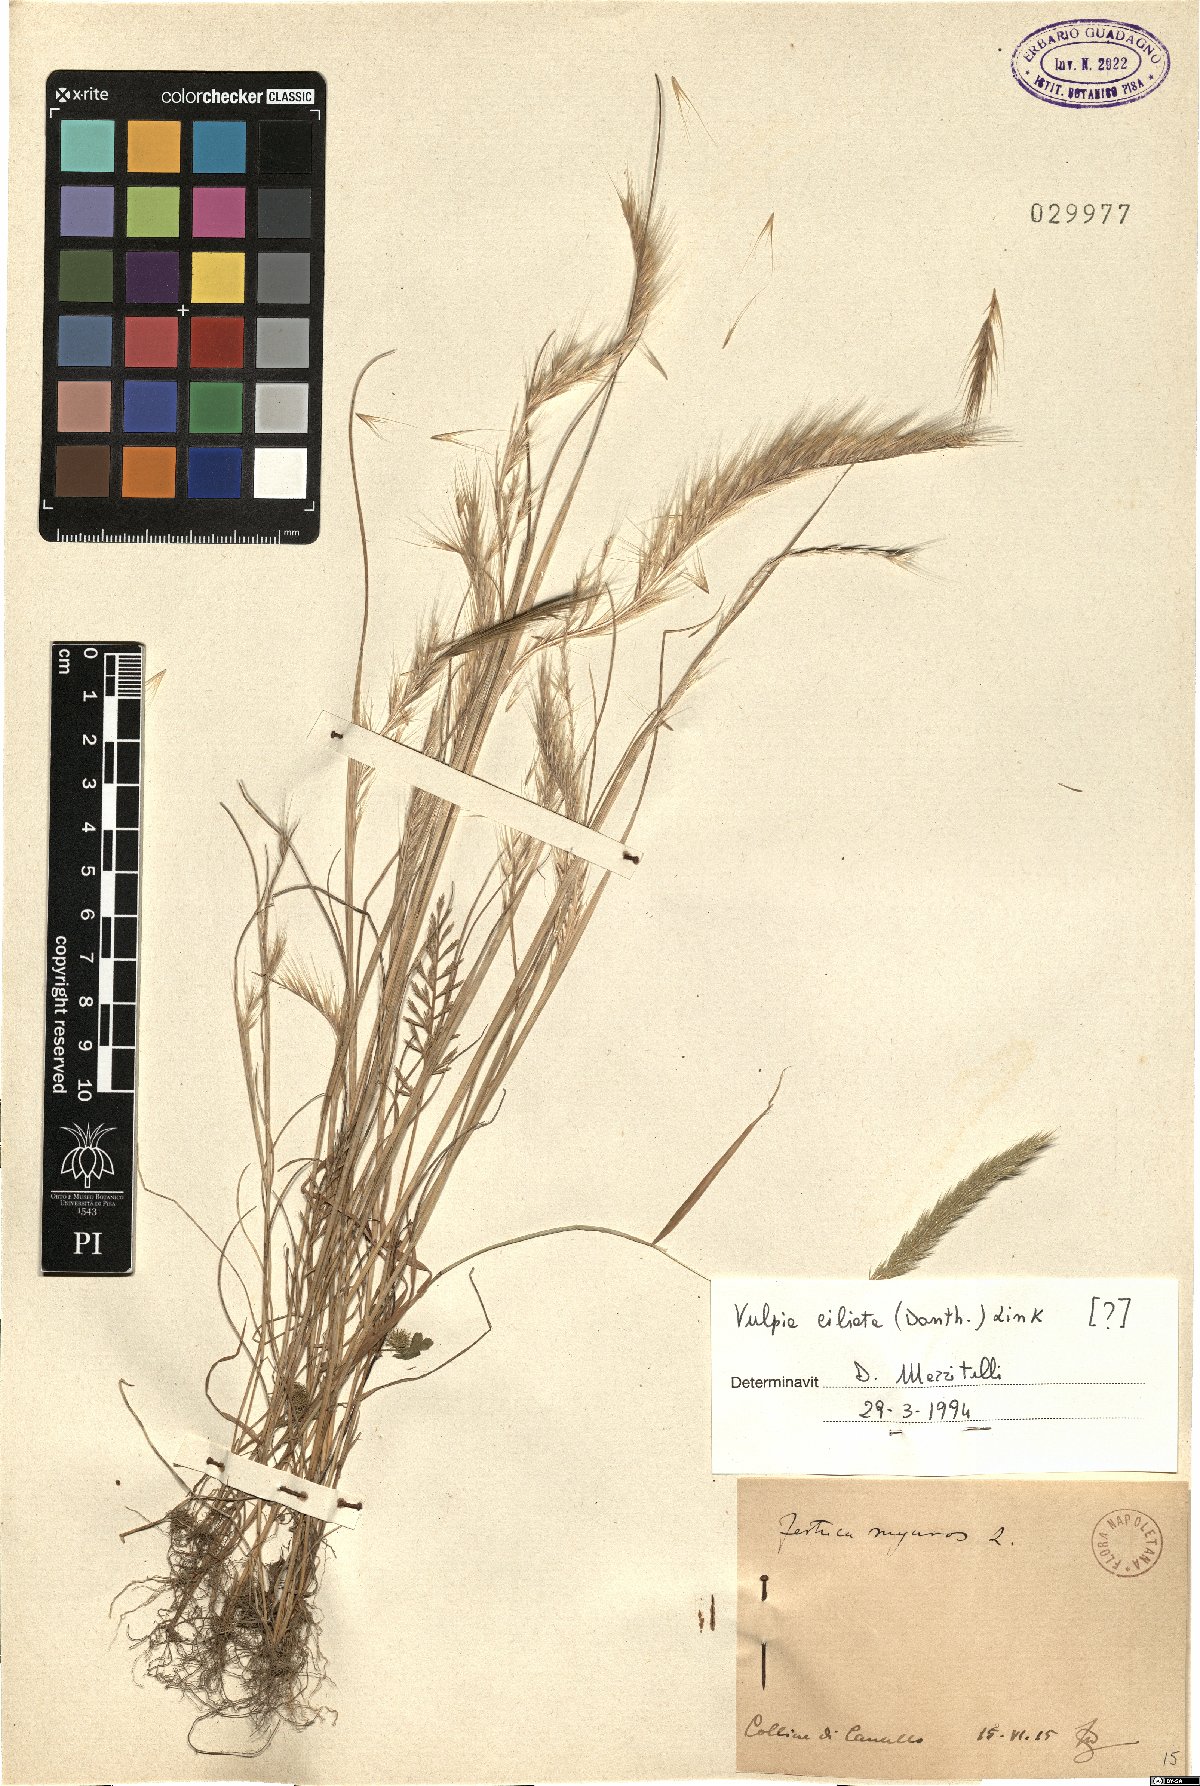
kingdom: Plantae
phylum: Tracheophyta
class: Liliopsida
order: Poales
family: Poaceae
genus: Festuca
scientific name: Festuca ambigua
